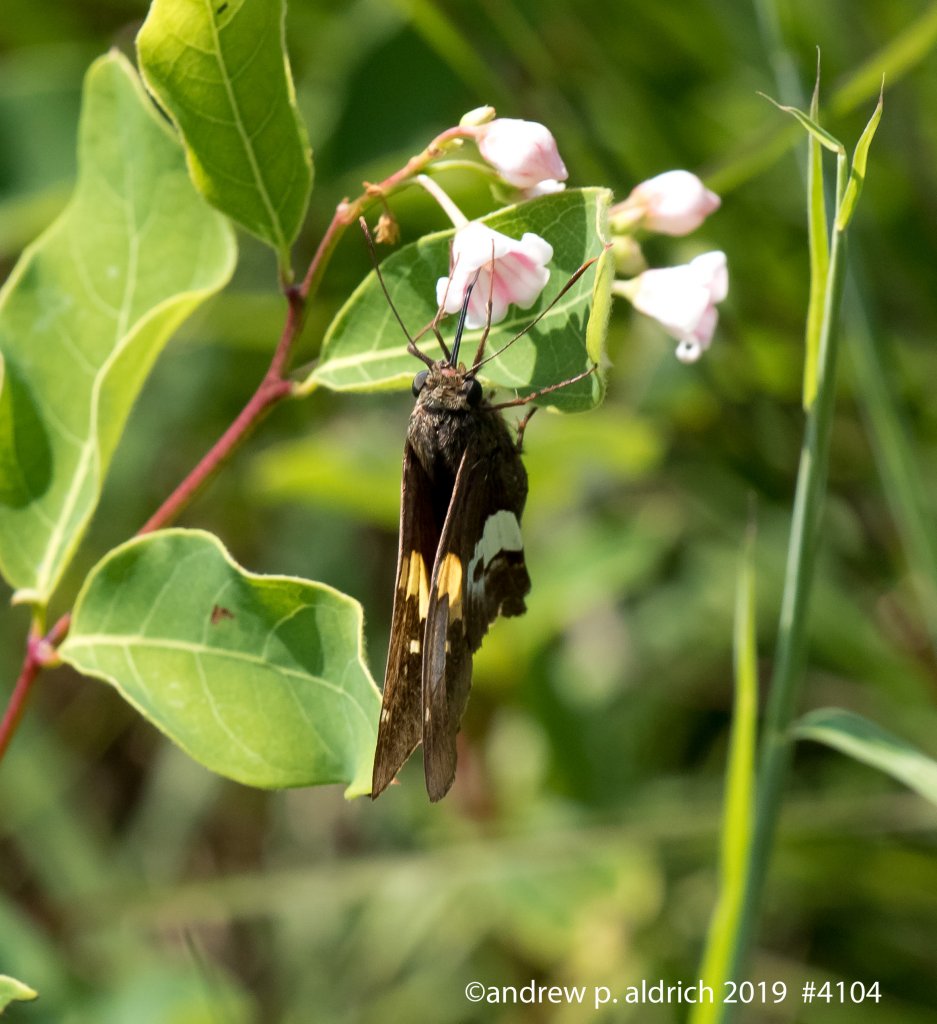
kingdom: Animalia
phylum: Arthropoda
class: Insecta
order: Lepidoptera
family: Hesperiidae
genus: Epargyreus
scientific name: Epargyreus clarus
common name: Silver-spotted Skipper
